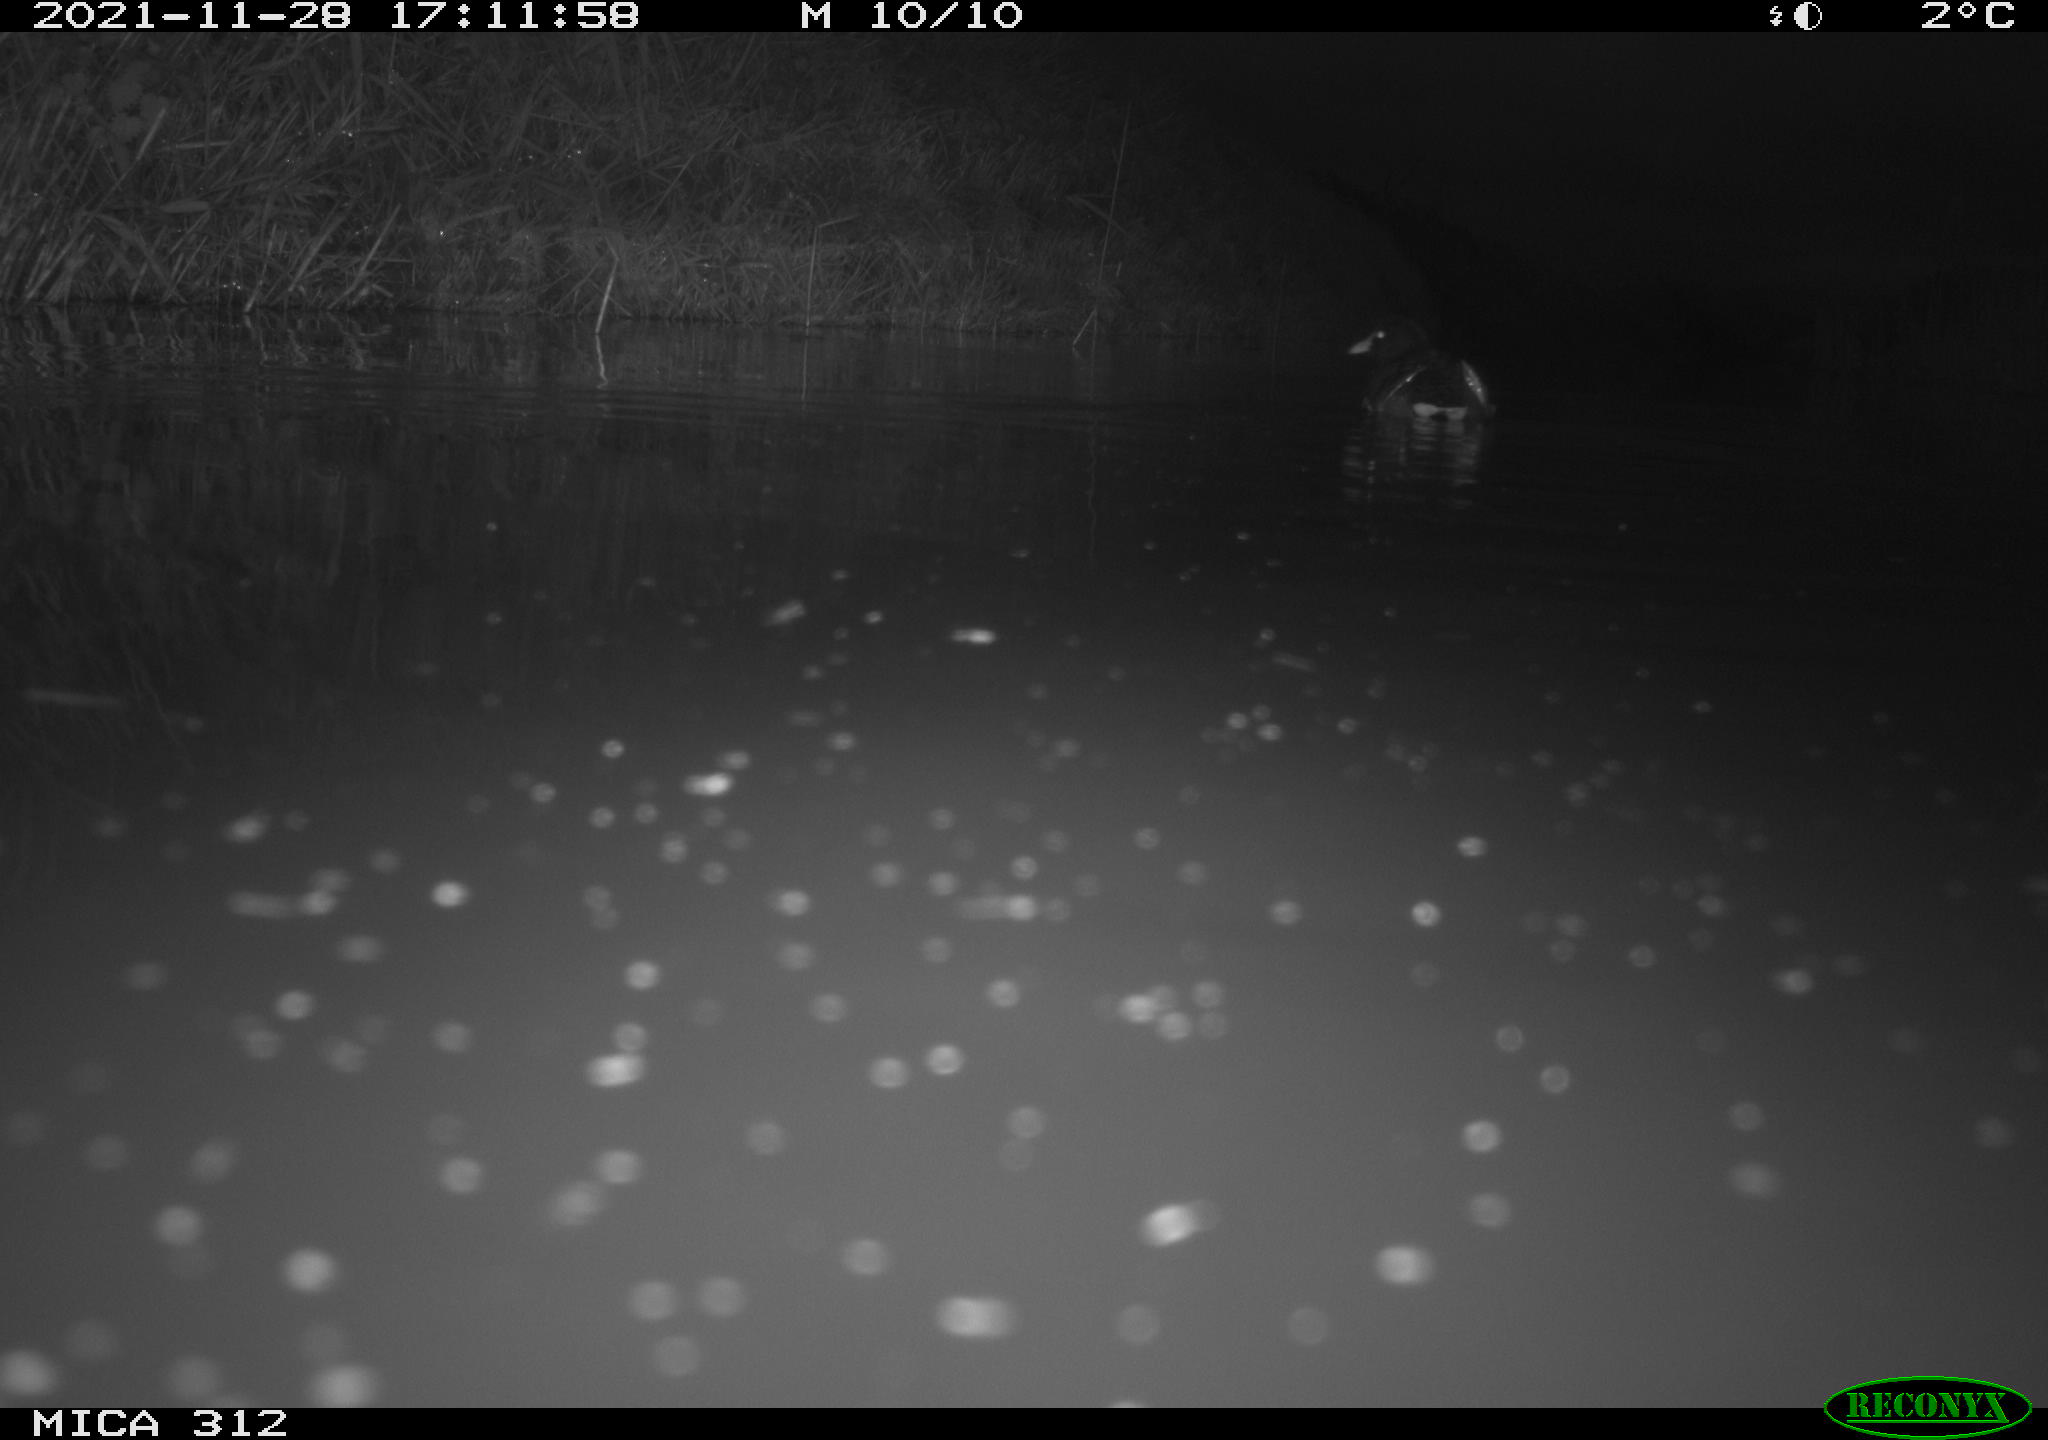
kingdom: Animalia
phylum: Chordata
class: Aves
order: Gruiformes
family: Rallidae
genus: Gallinula
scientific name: Gallinula chloropus
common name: Common moorhen
